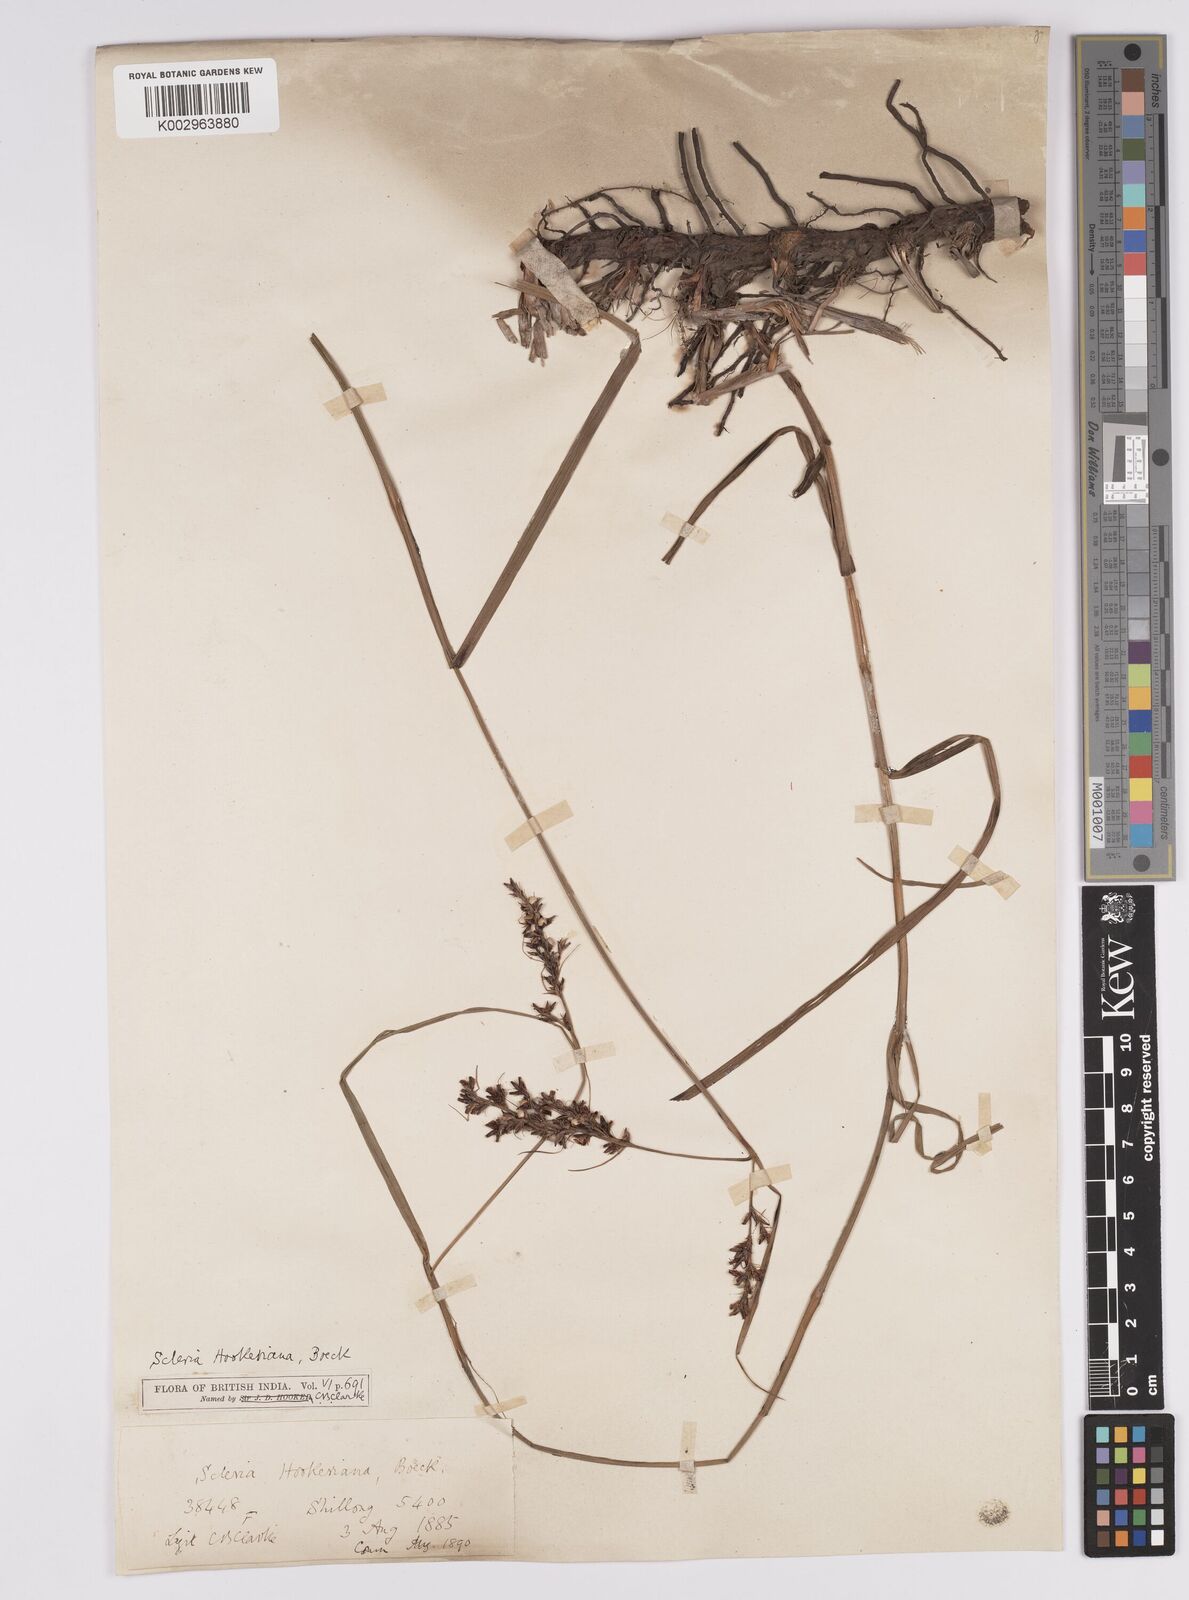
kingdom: Plantae
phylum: Tracheophyta
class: Liliopsida
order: Poales
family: Cyperaceae
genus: Scleria
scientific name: Scleria terrestris
